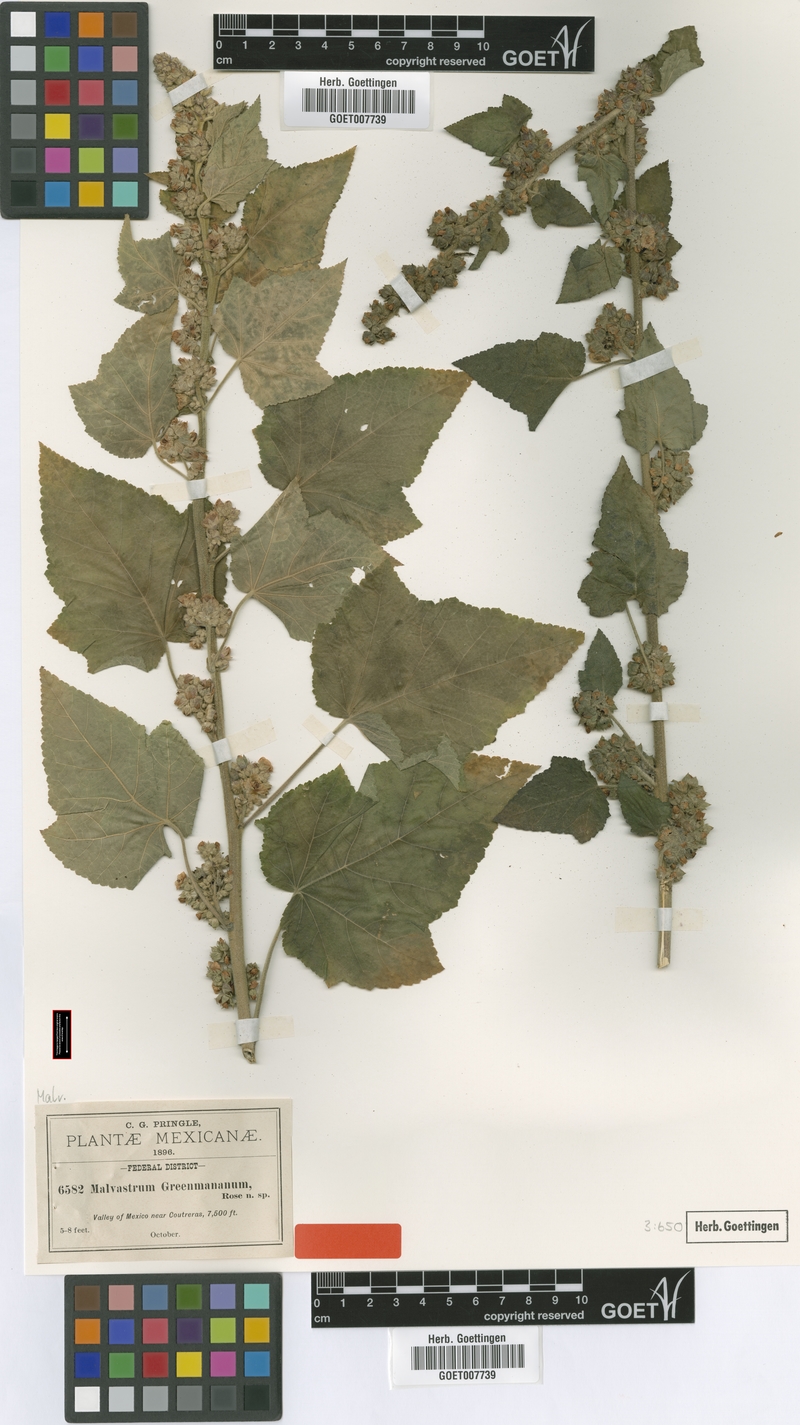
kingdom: Plantae
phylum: Tracheophyta
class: Magnoliopsida
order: Malvales
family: Malvaceae
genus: Kearnemalvastrum
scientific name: Kearnemalvastrum subtriflorum
